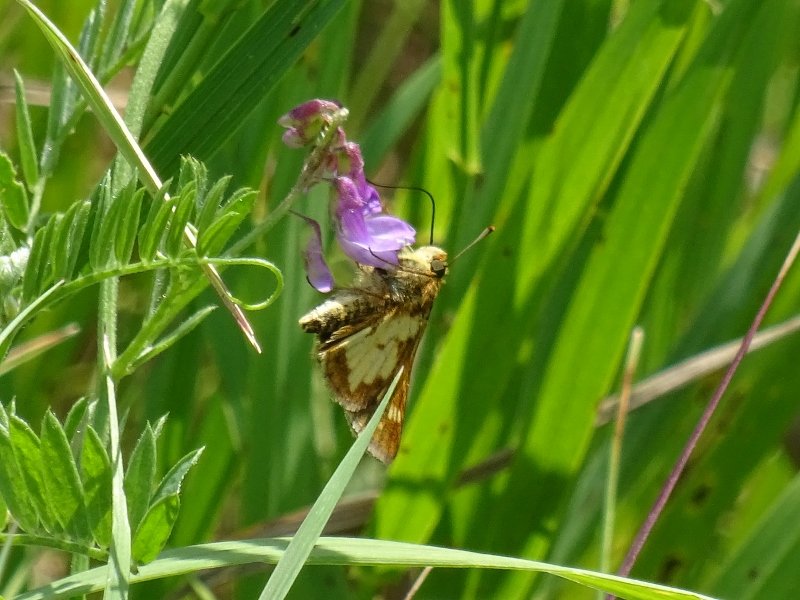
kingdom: Animalia
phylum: Arthropoda
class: Insecta
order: Lepidoptera
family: Hesperiidae
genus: Polites
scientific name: Polites coras
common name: Peck's Skipper
